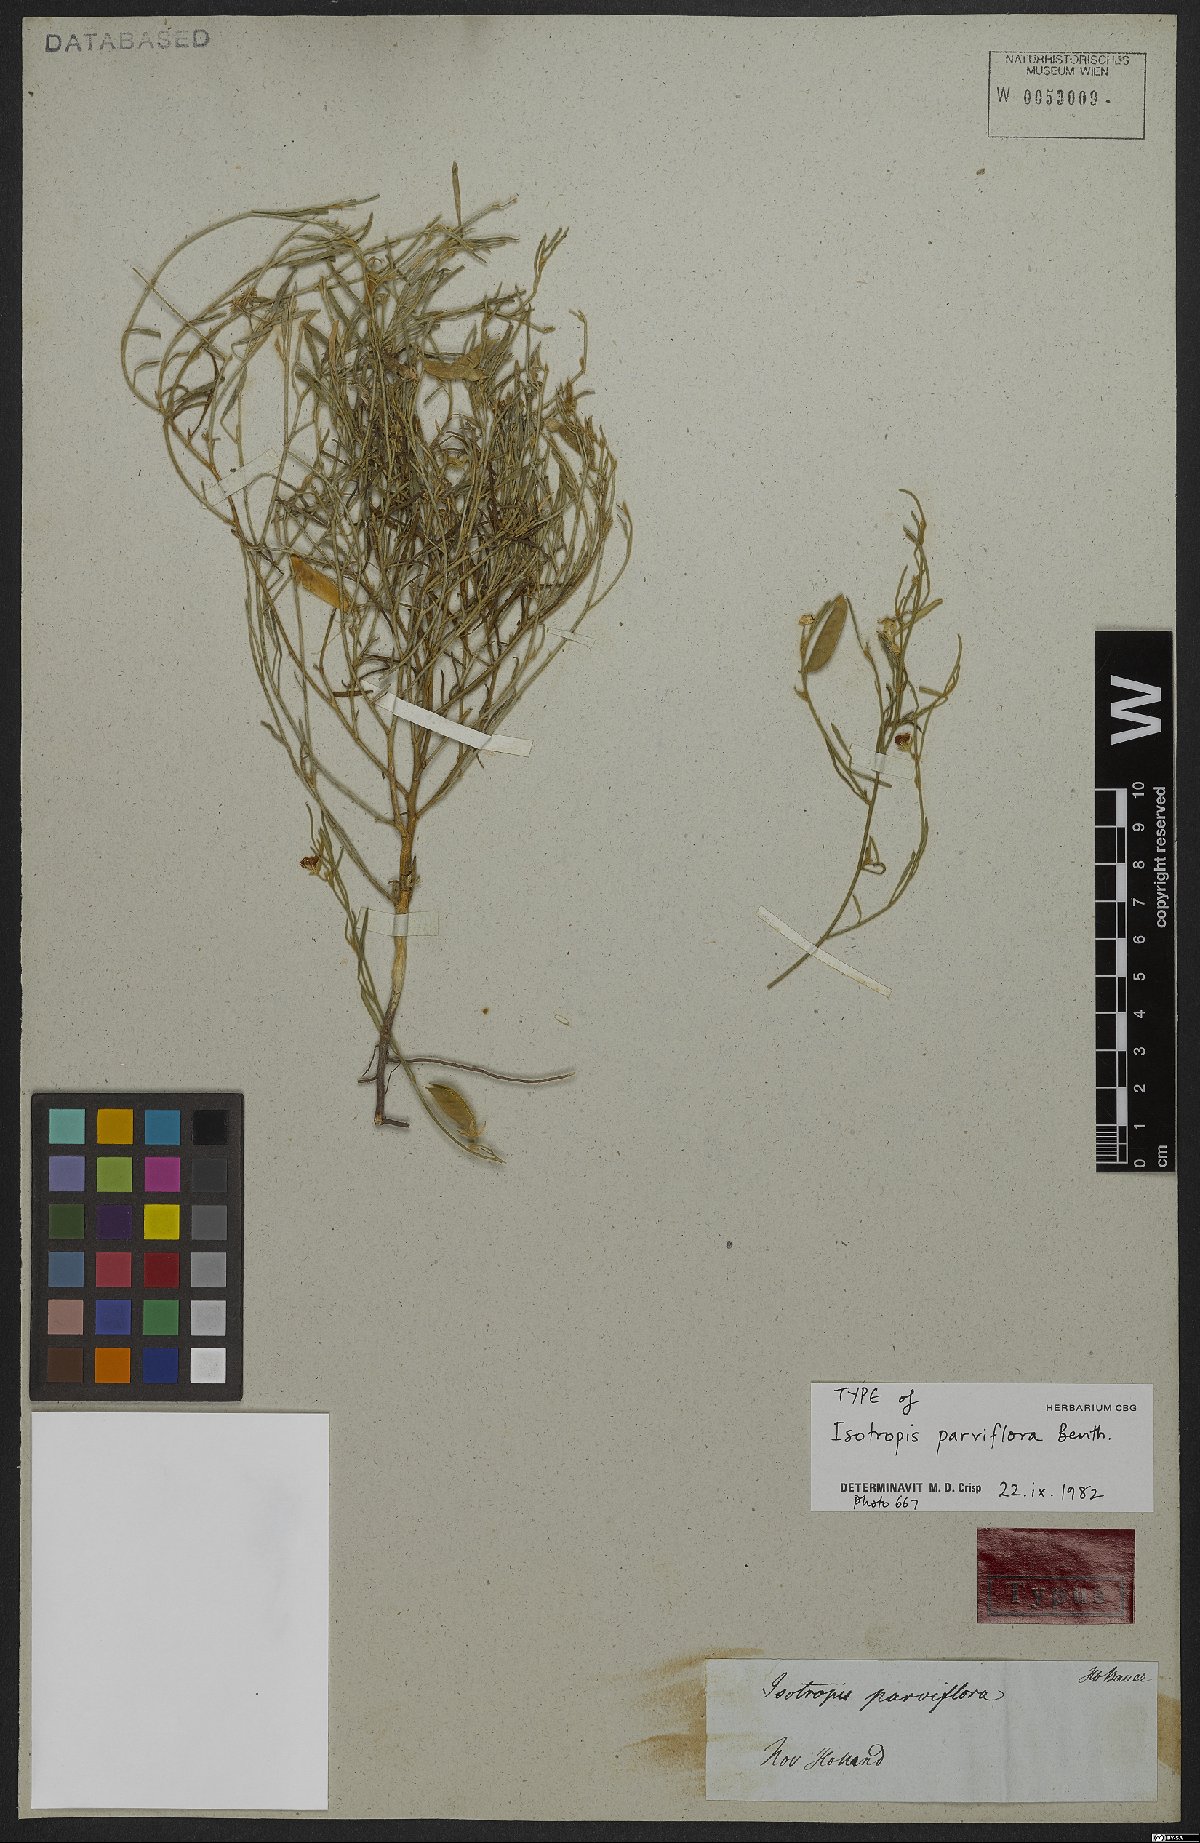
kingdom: Plantae
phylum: Tracheophyta
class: Magnoliopsida
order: Fabales
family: Fabaceae
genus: Isotropis
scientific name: Isotropis parviflora
